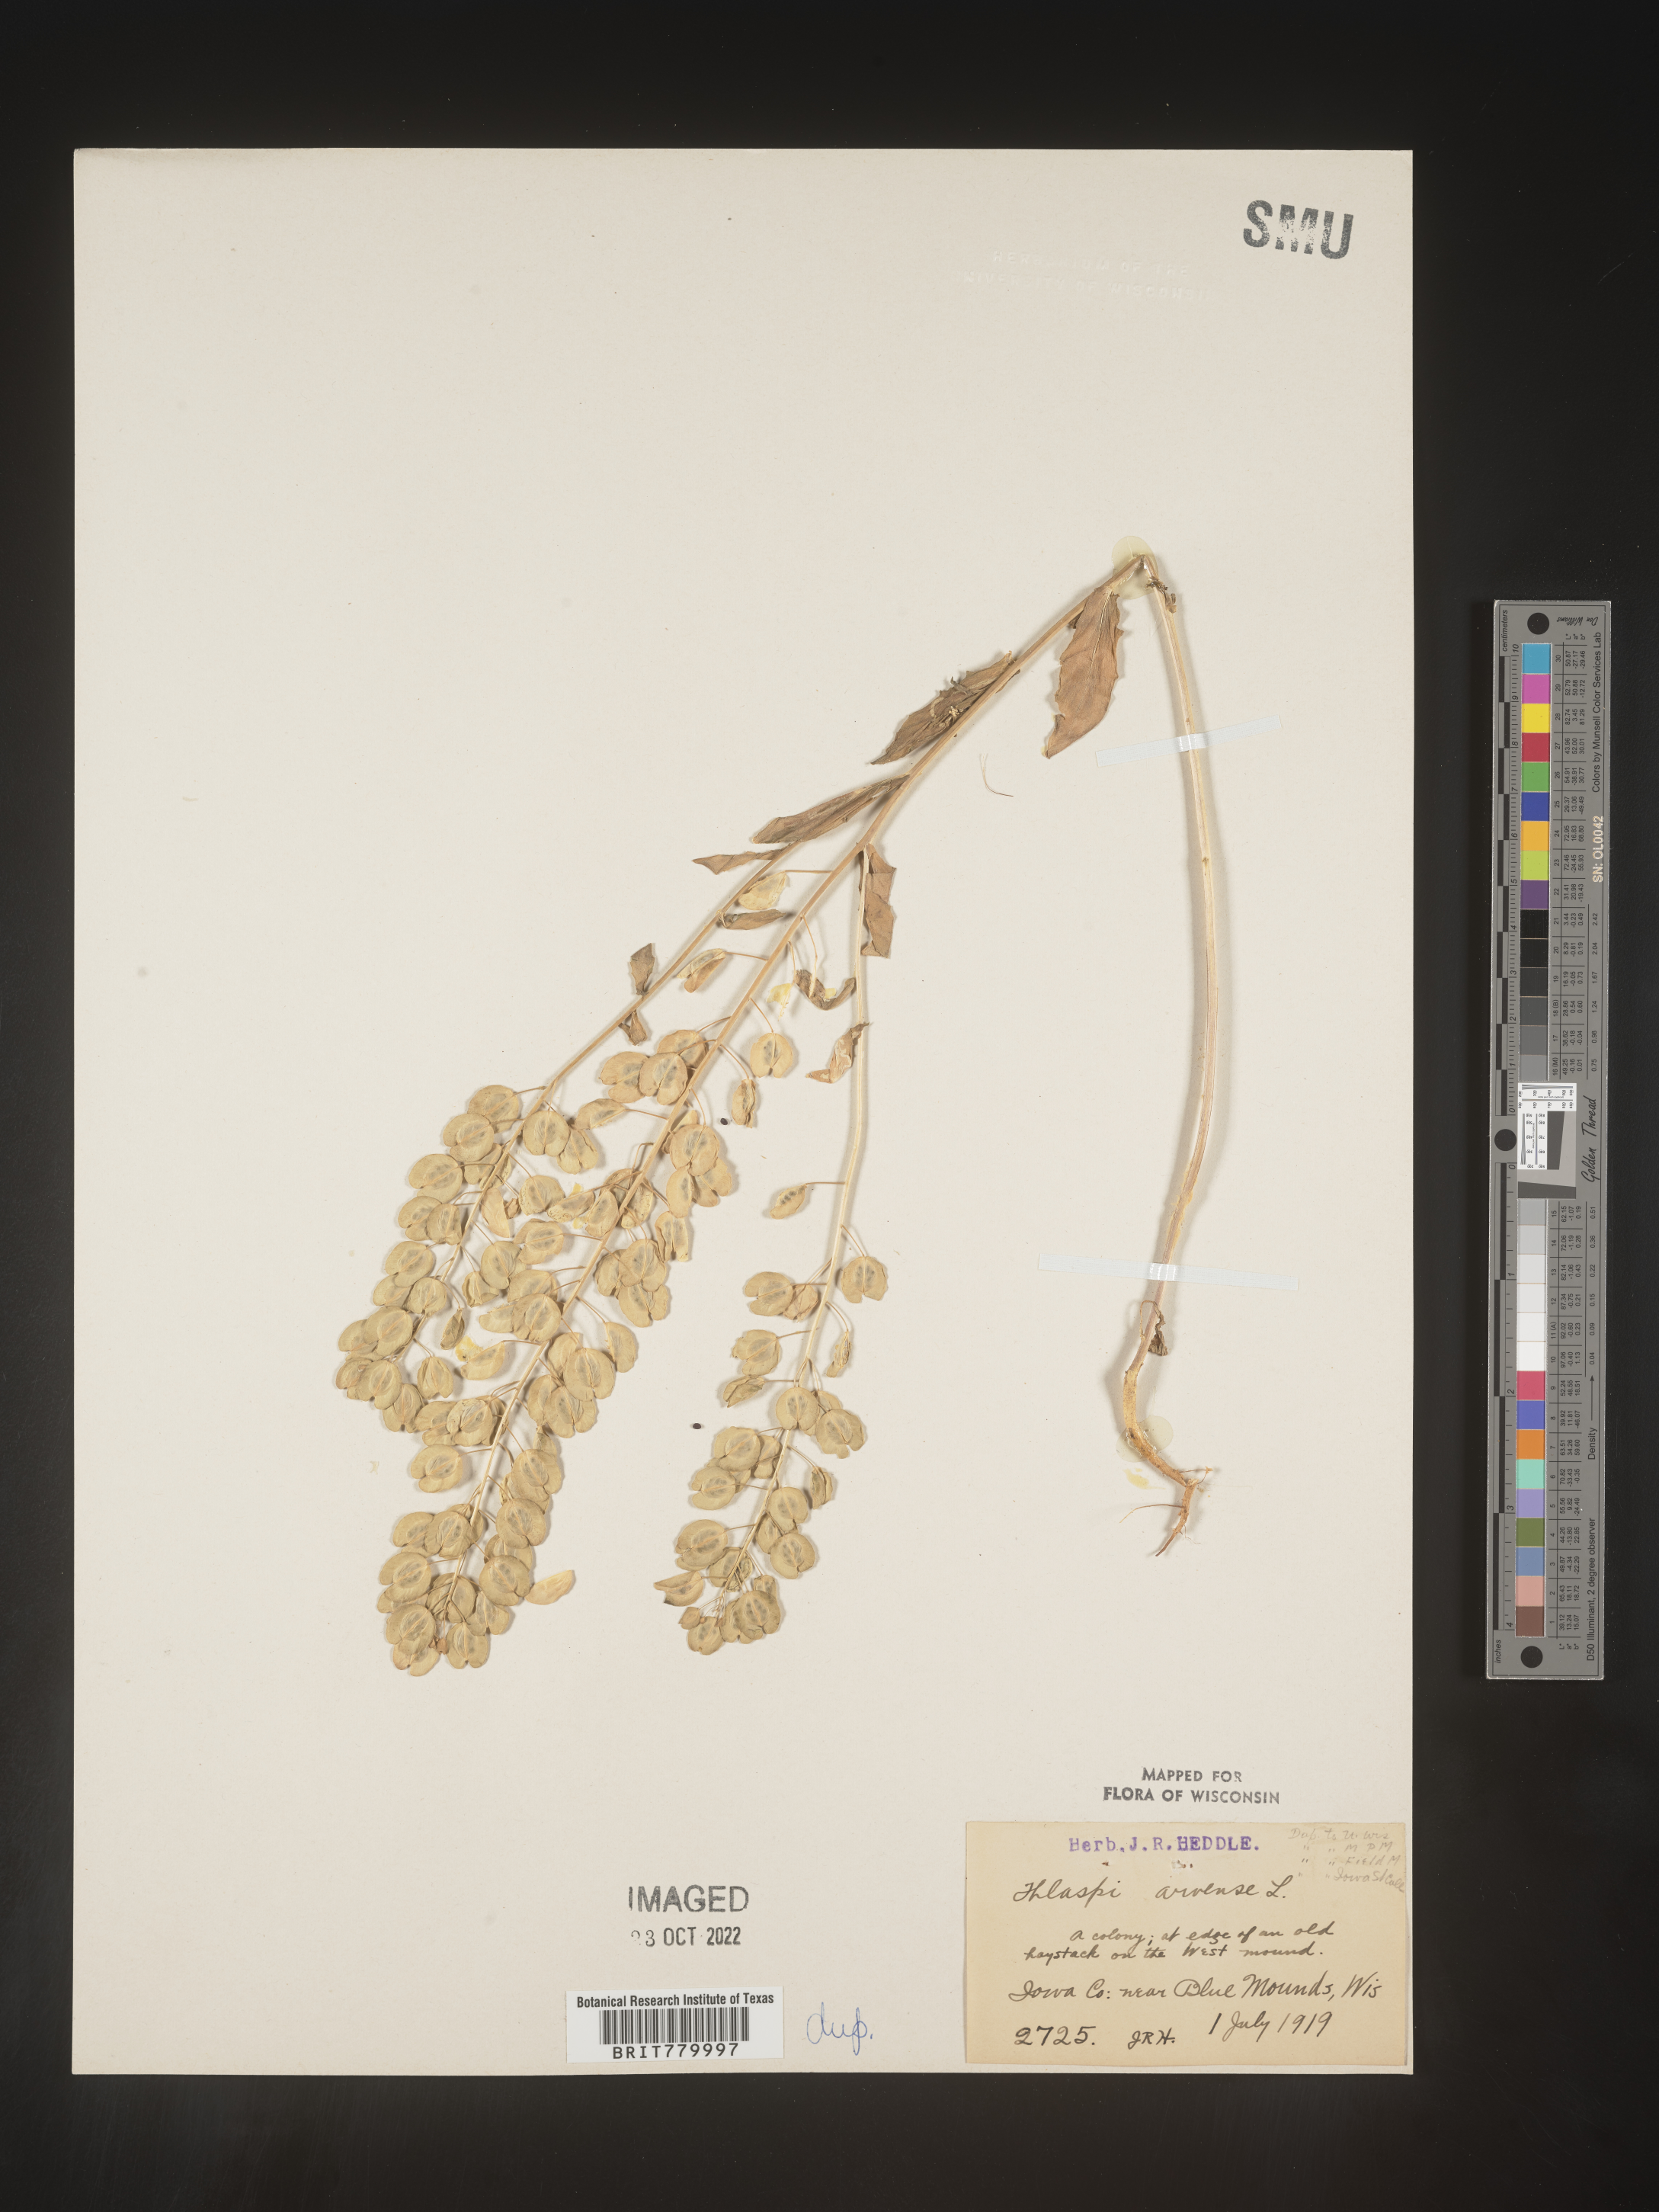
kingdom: Plantae
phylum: Tracheophyta
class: Magnoliopsida
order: Brassicales
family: Brassicaceae
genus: Thlaspi
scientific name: Thlaspi arvense
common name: Field pennycress
